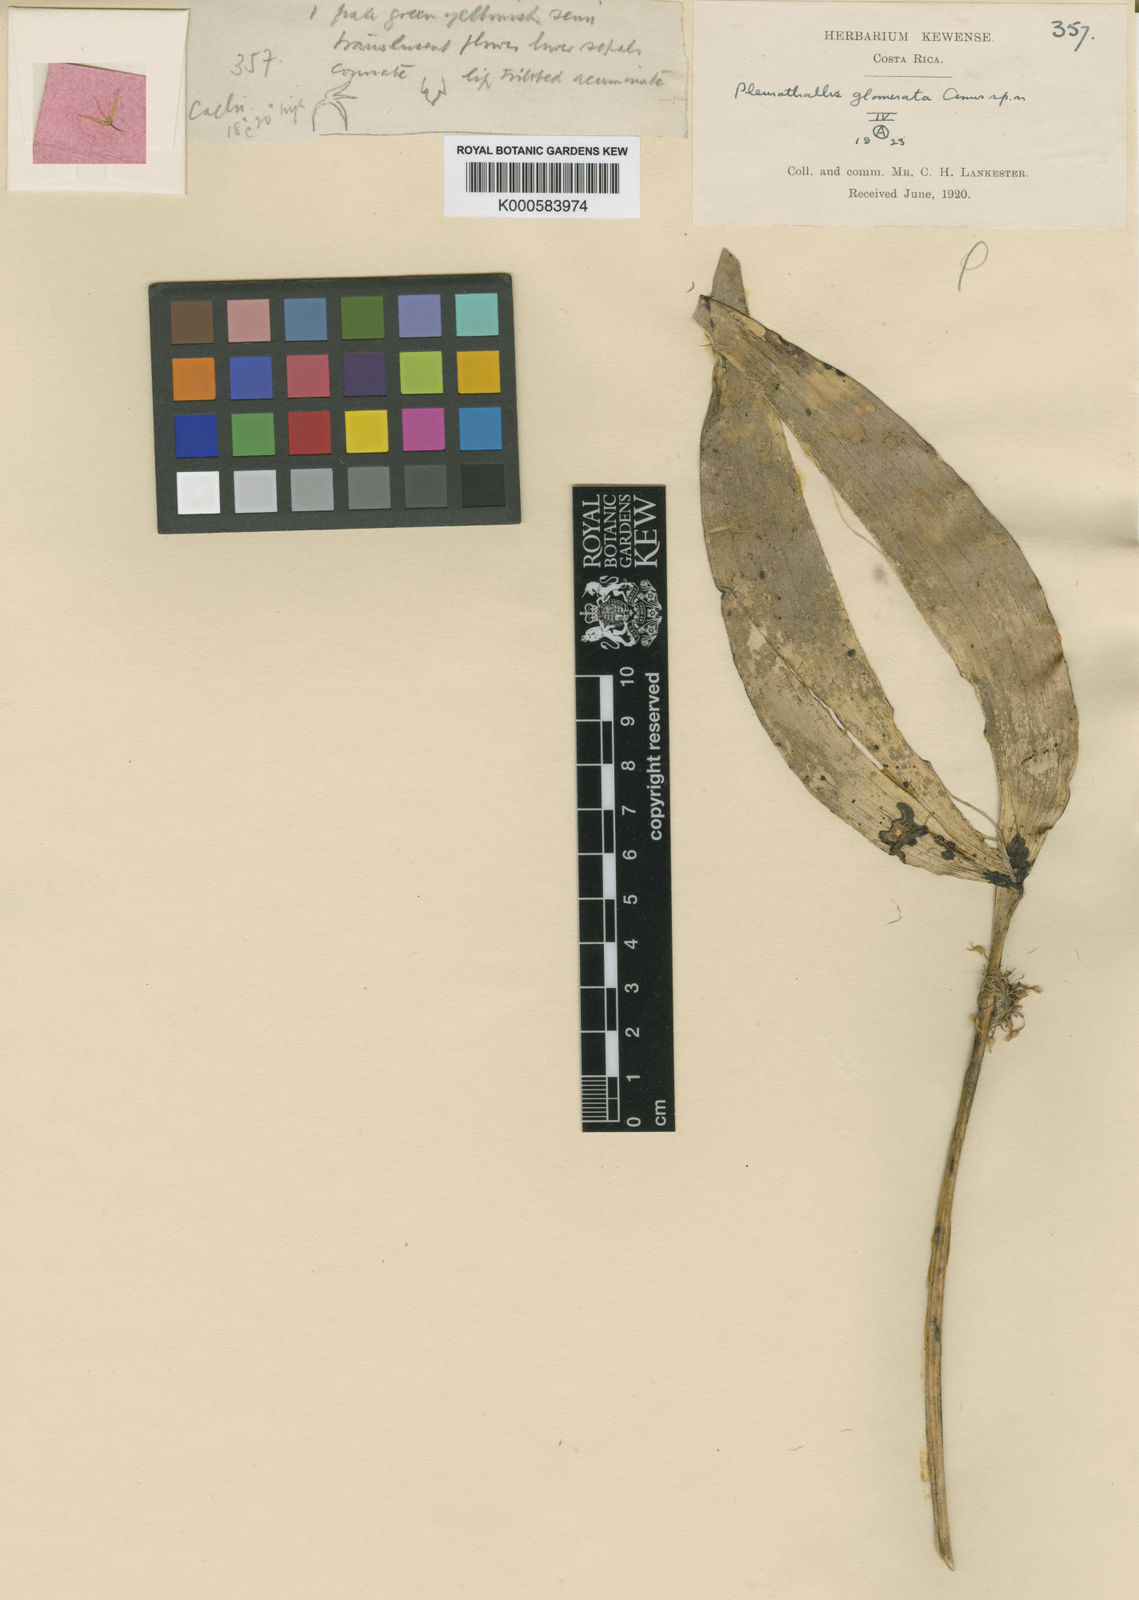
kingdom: Plantae
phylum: Tracheophyta
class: Liliopsida
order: Asparagales
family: Orchidaceae
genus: Pleurothallis
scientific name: Pleurothallis ruscifolia
